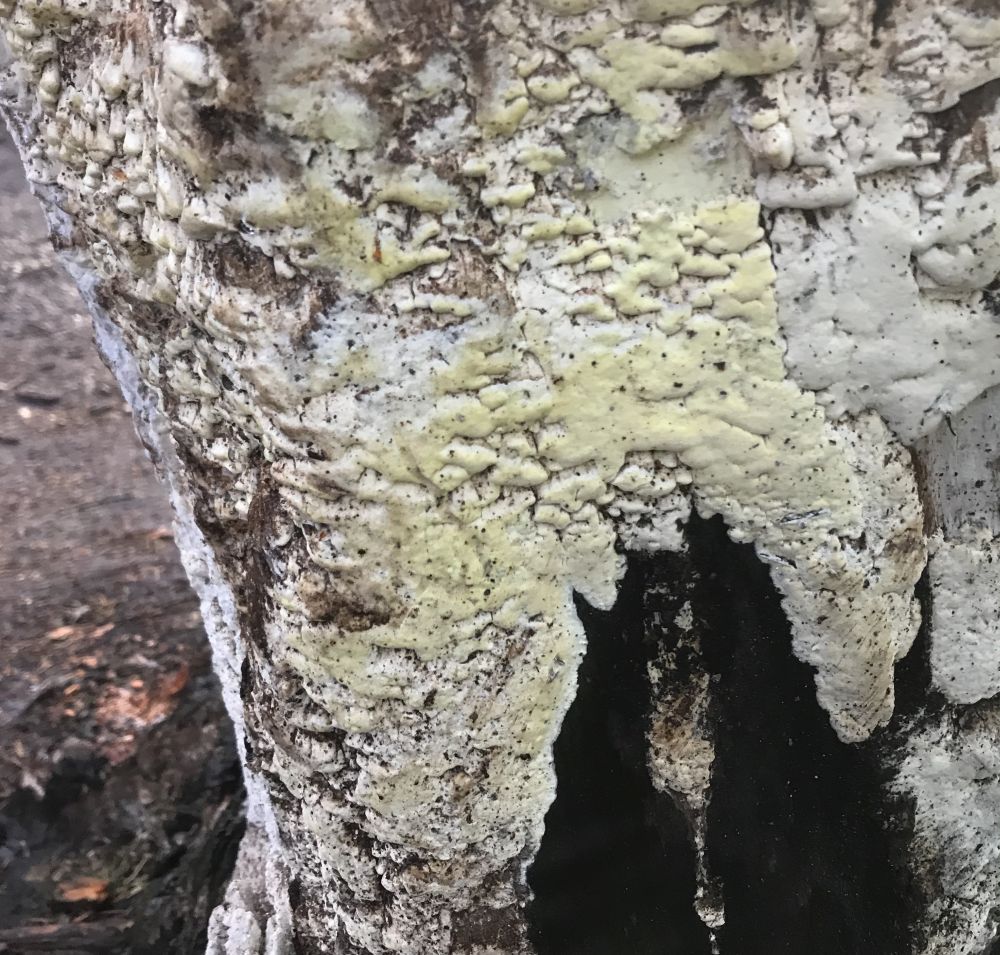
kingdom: Fungi
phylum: Basidiomycota
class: Agaricomycetes
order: Polyporales
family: Fomitopsidaceae
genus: Daedalea
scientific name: Daedalea xantha
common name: gul sejporesvamp
